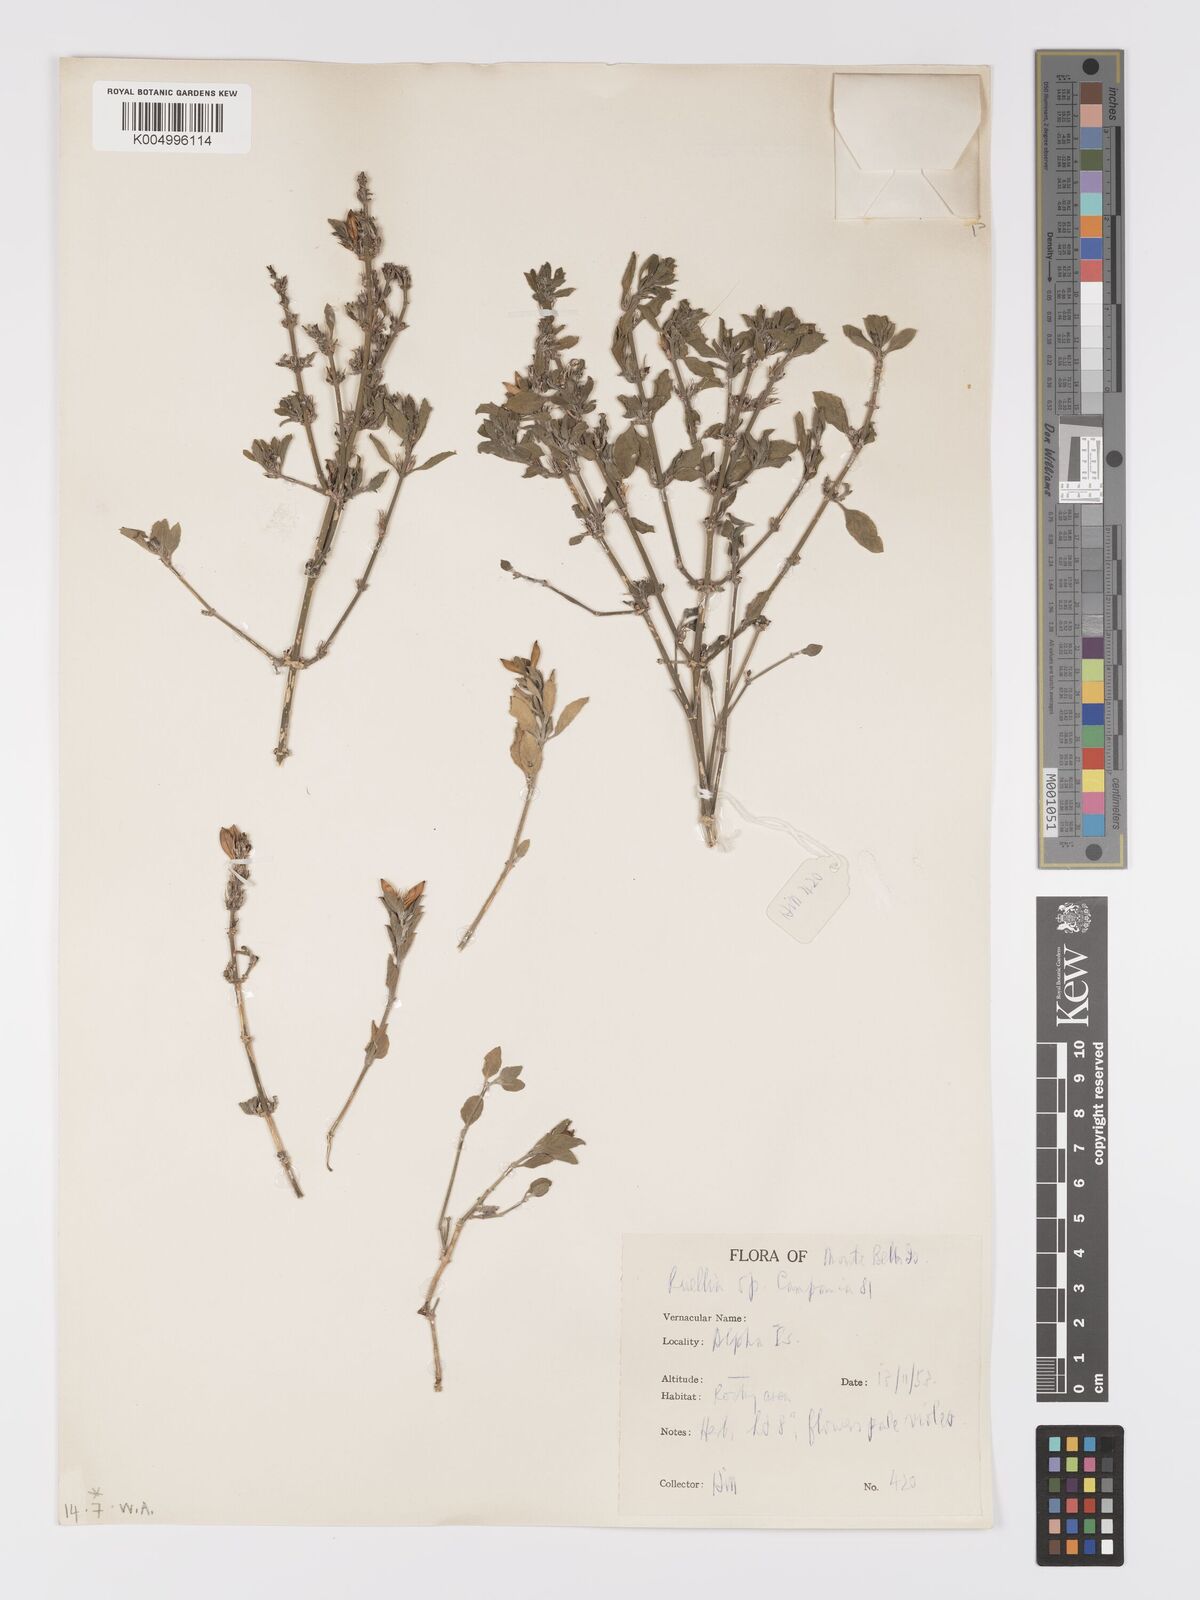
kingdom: Plantae
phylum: Tracheophyta
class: Magnoliopsida
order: Lamiales
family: Acanthaceae
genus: Ruellia
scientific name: Ruellia
